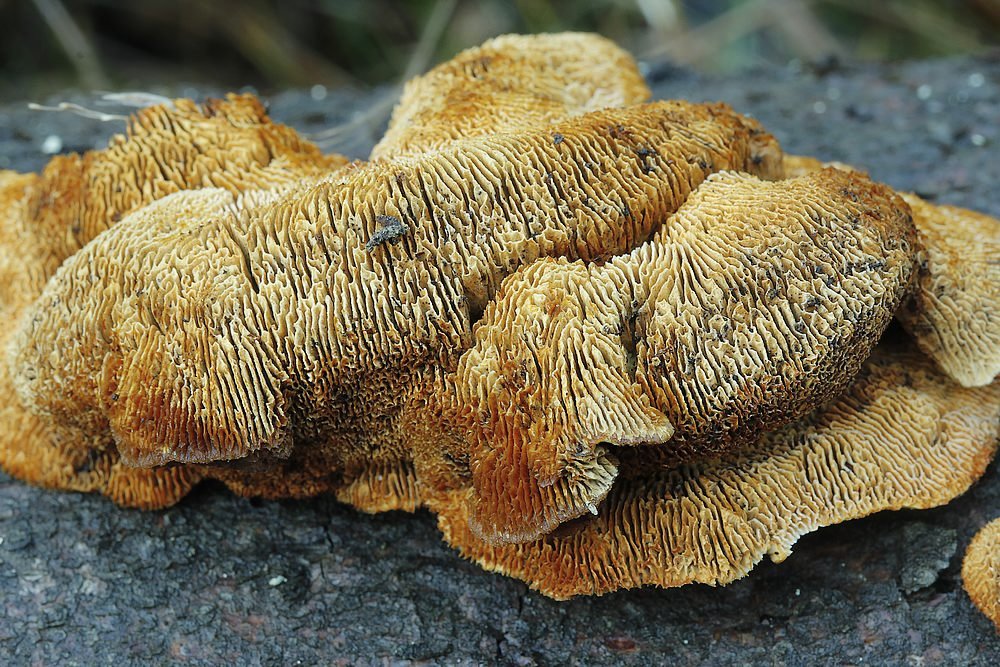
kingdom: Fungi
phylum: Basidiomycota
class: Agaricomycetes
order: Gloeophyllales
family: Gloeophyllaceae
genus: Gloeophyllum
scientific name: Gloeophyllum sepiarium
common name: fyrre-korkhat
